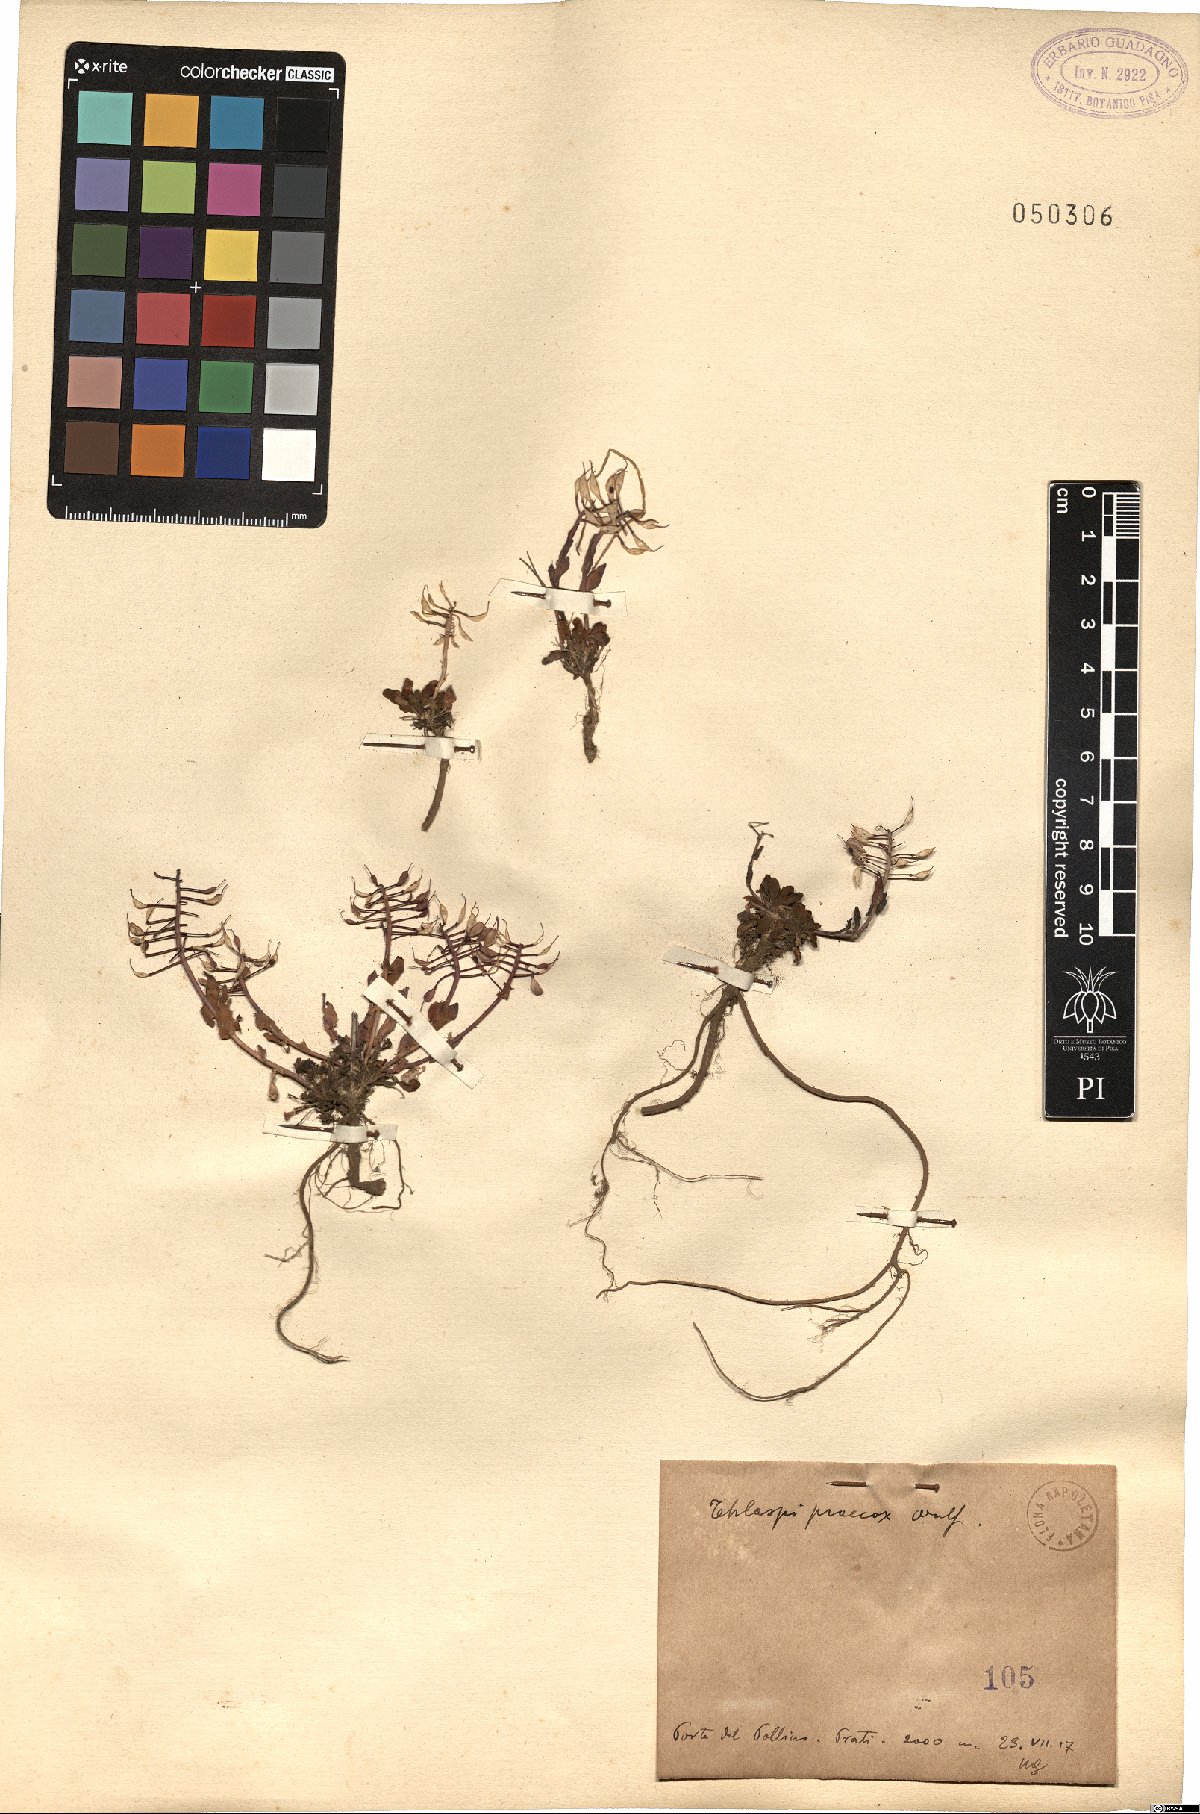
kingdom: Plantae
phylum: Tracheophyta
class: Magnoliopsida
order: Brassicales
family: Brassicaceae
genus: Noccaea
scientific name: Noccaea praecox
